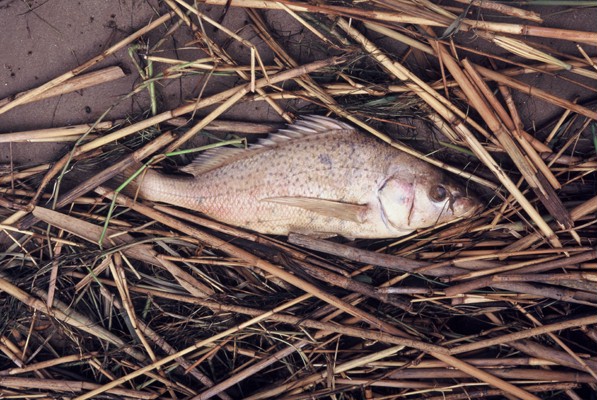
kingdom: Animalia
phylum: Chordata
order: Perciformes
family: Haemulidae
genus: Pomadasys
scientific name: Pomadasys commersonnii
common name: Smallspotted grunter
